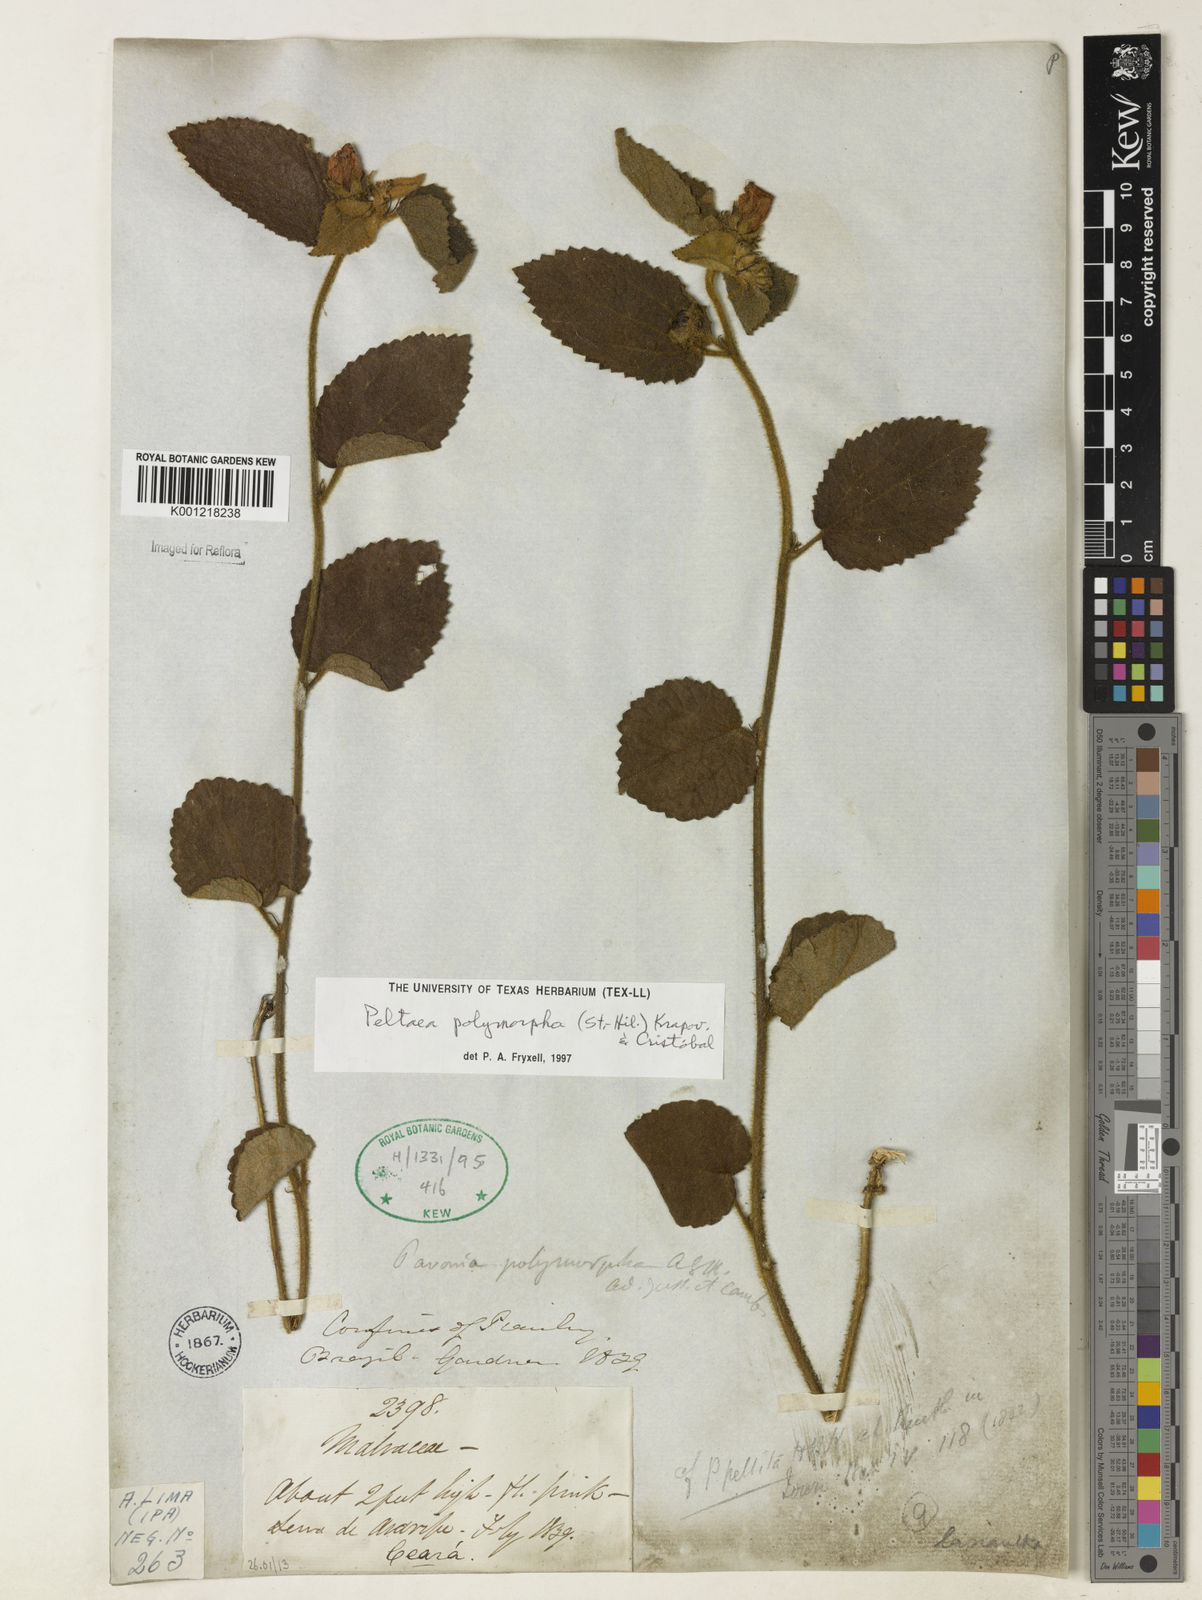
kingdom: Plantae
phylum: Tracheophyta
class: Magnoliopsida
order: Malvales
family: Malvaceae
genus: Peltaea
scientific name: Peltaea
